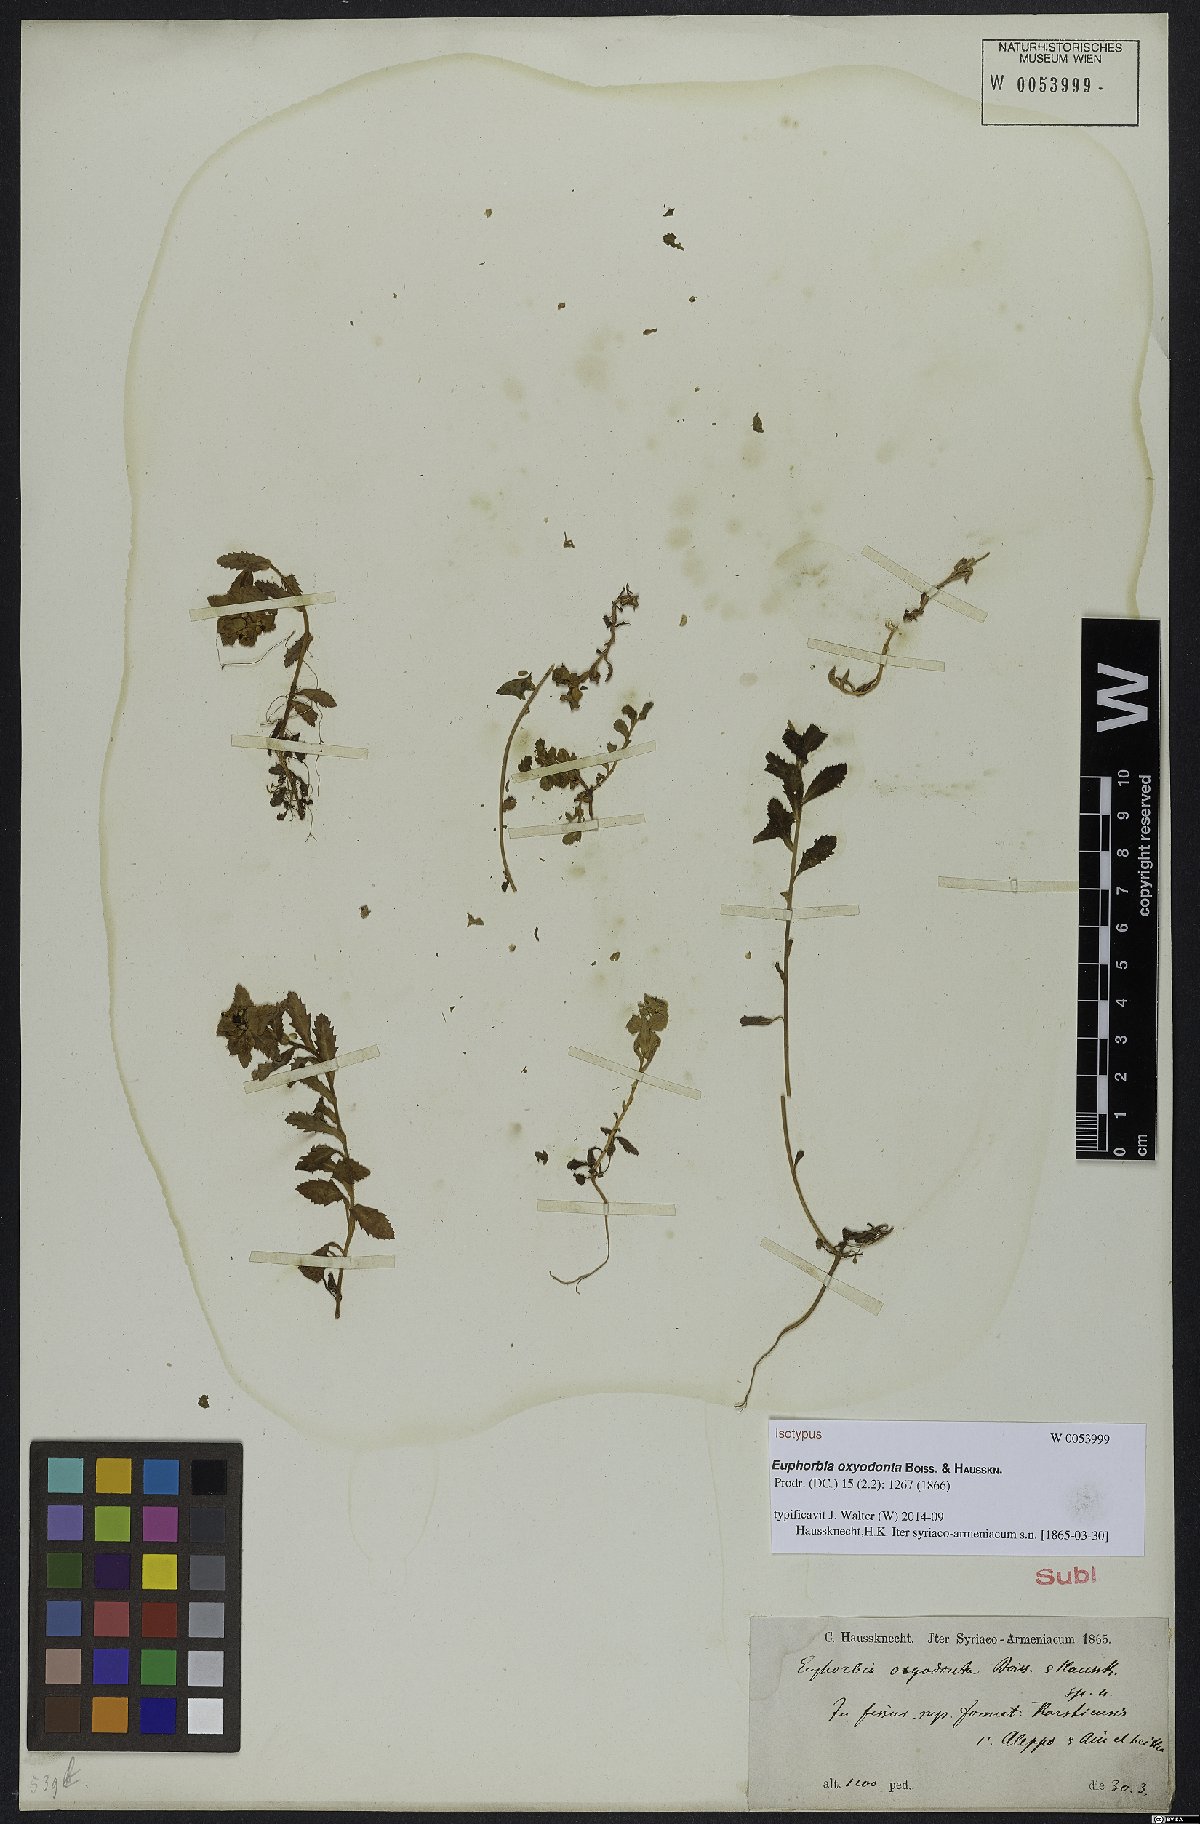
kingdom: Plantae
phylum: Tracheophyta
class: Magnoliopsida
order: Malpighiales
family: Euphorbiaceae
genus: Euphorbia
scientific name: Euphorbia oxyodonta
